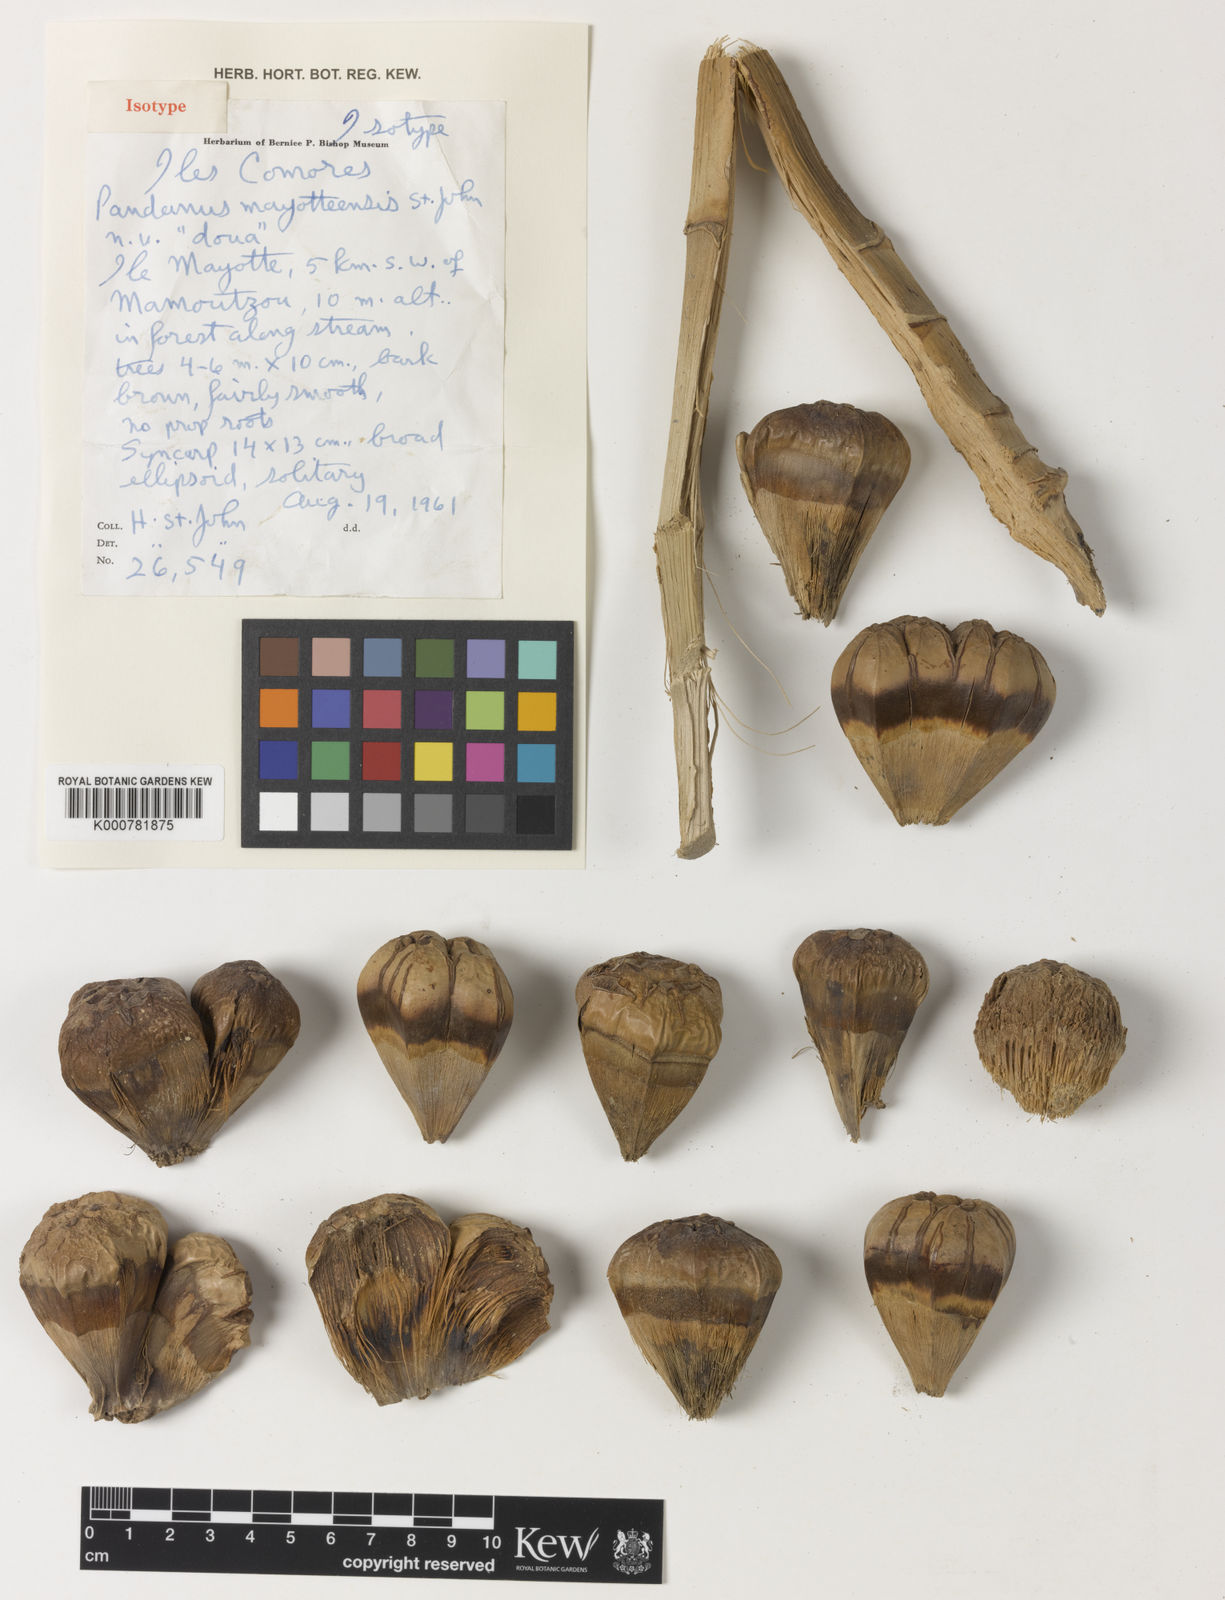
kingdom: Plantae
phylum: Tracheophyta
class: Liliopsida
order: Pandanales
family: Pandanaceae
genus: Pandanus
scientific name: Pandanus mayotteensis
